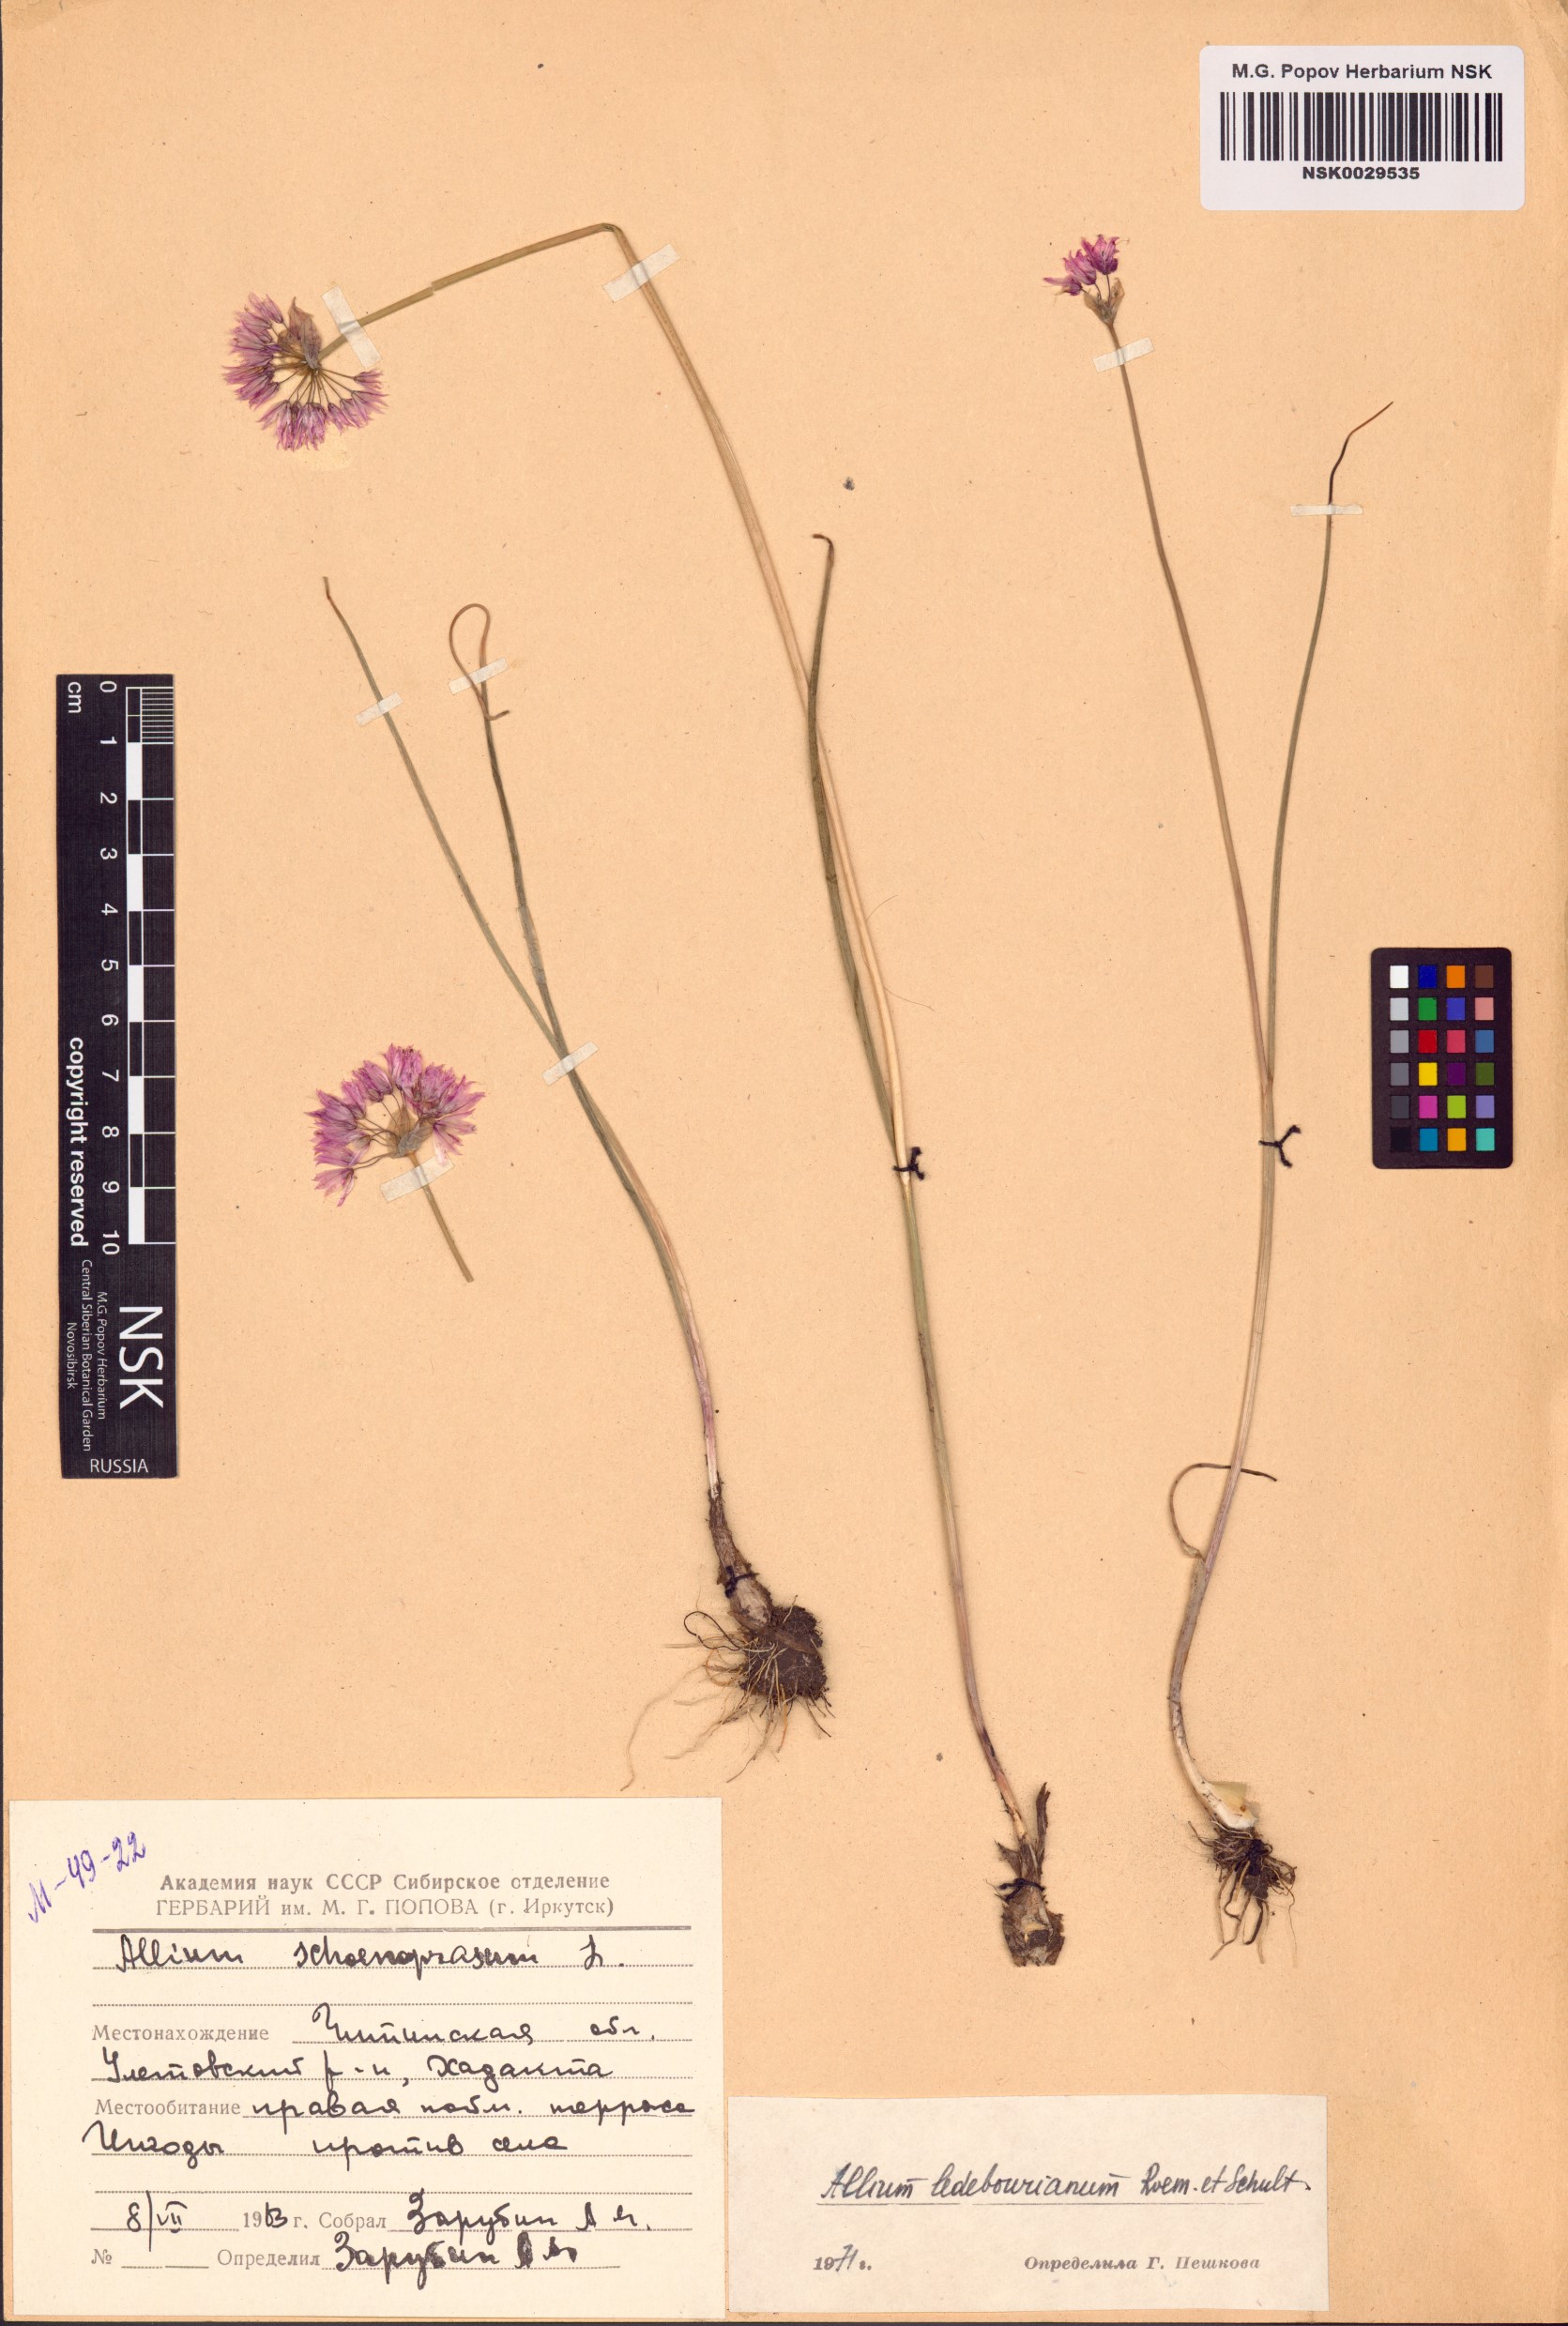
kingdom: Plantae
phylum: Tracheophyta
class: Liliopsida
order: Asparagales
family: Amaryllidaceae
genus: Allium
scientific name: Allium ledebourianum
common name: Ledebour chive
